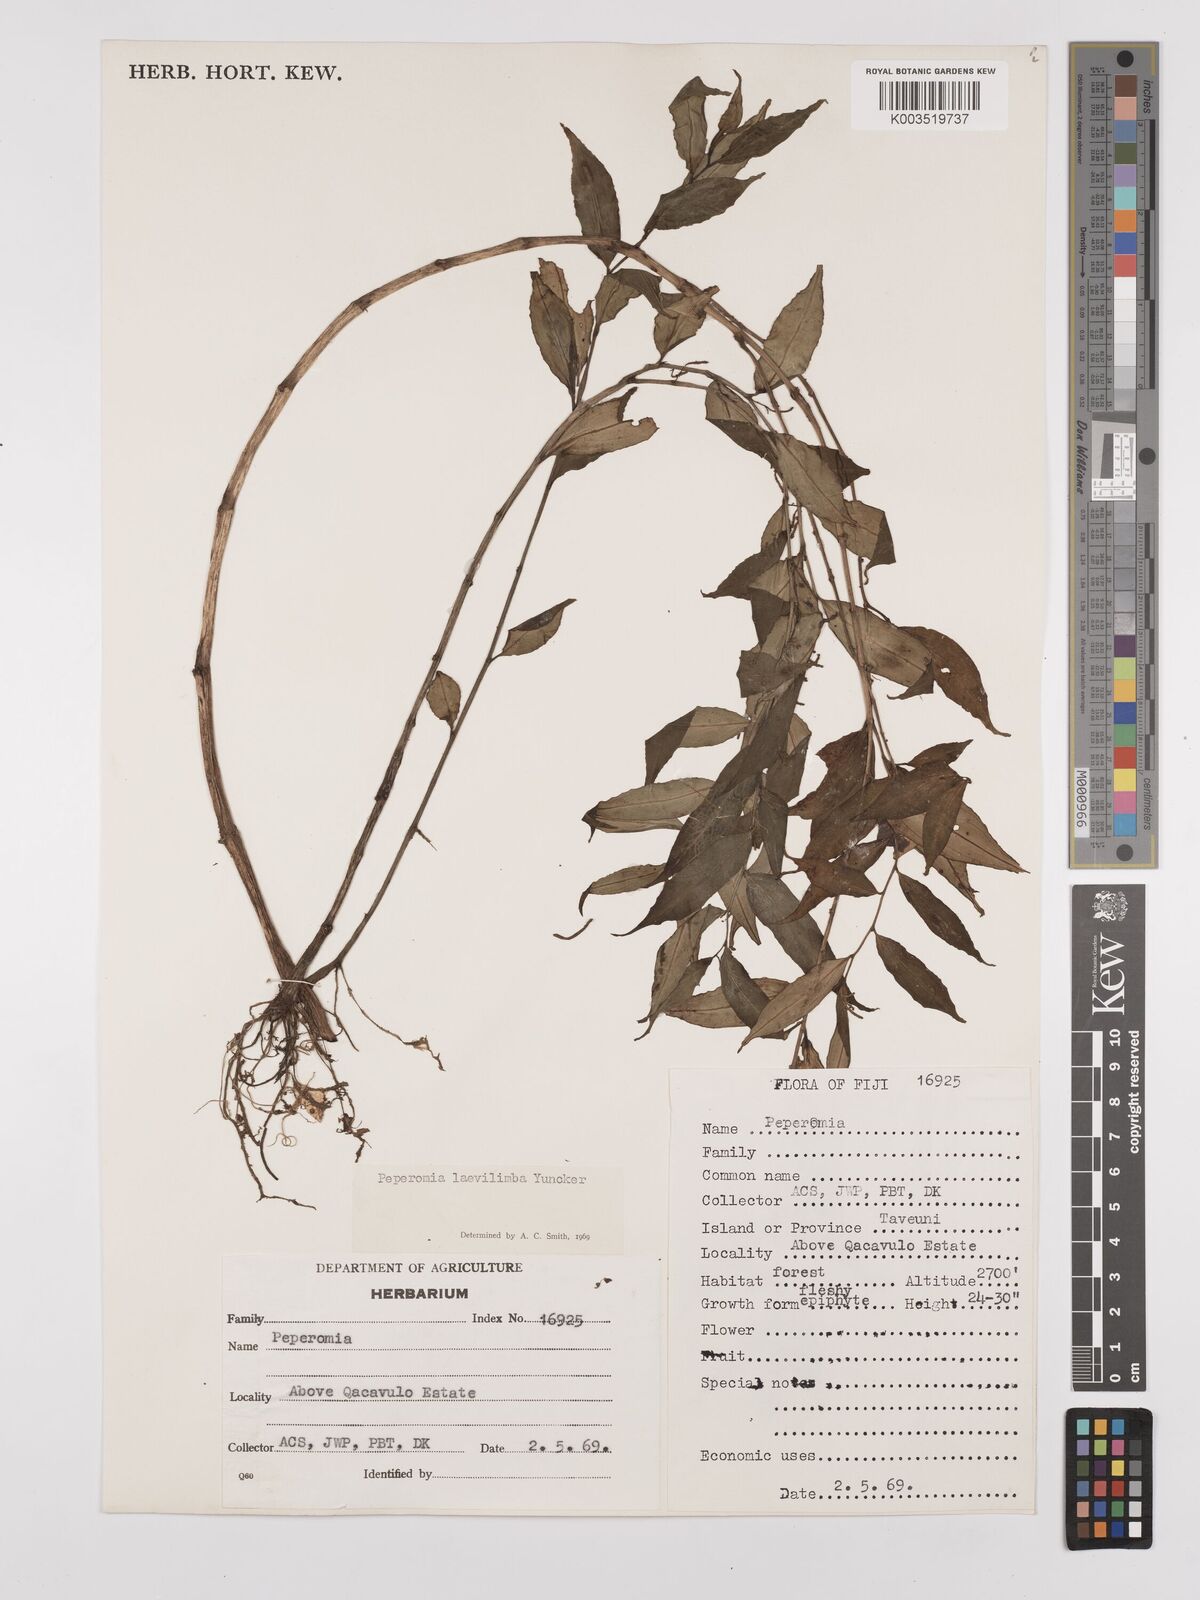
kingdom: Plantae
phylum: Tracheophyta
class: Magnoliopsida
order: Piperales
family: Piperaceae
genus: Peperomia
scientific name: Peperomia laevilimba
